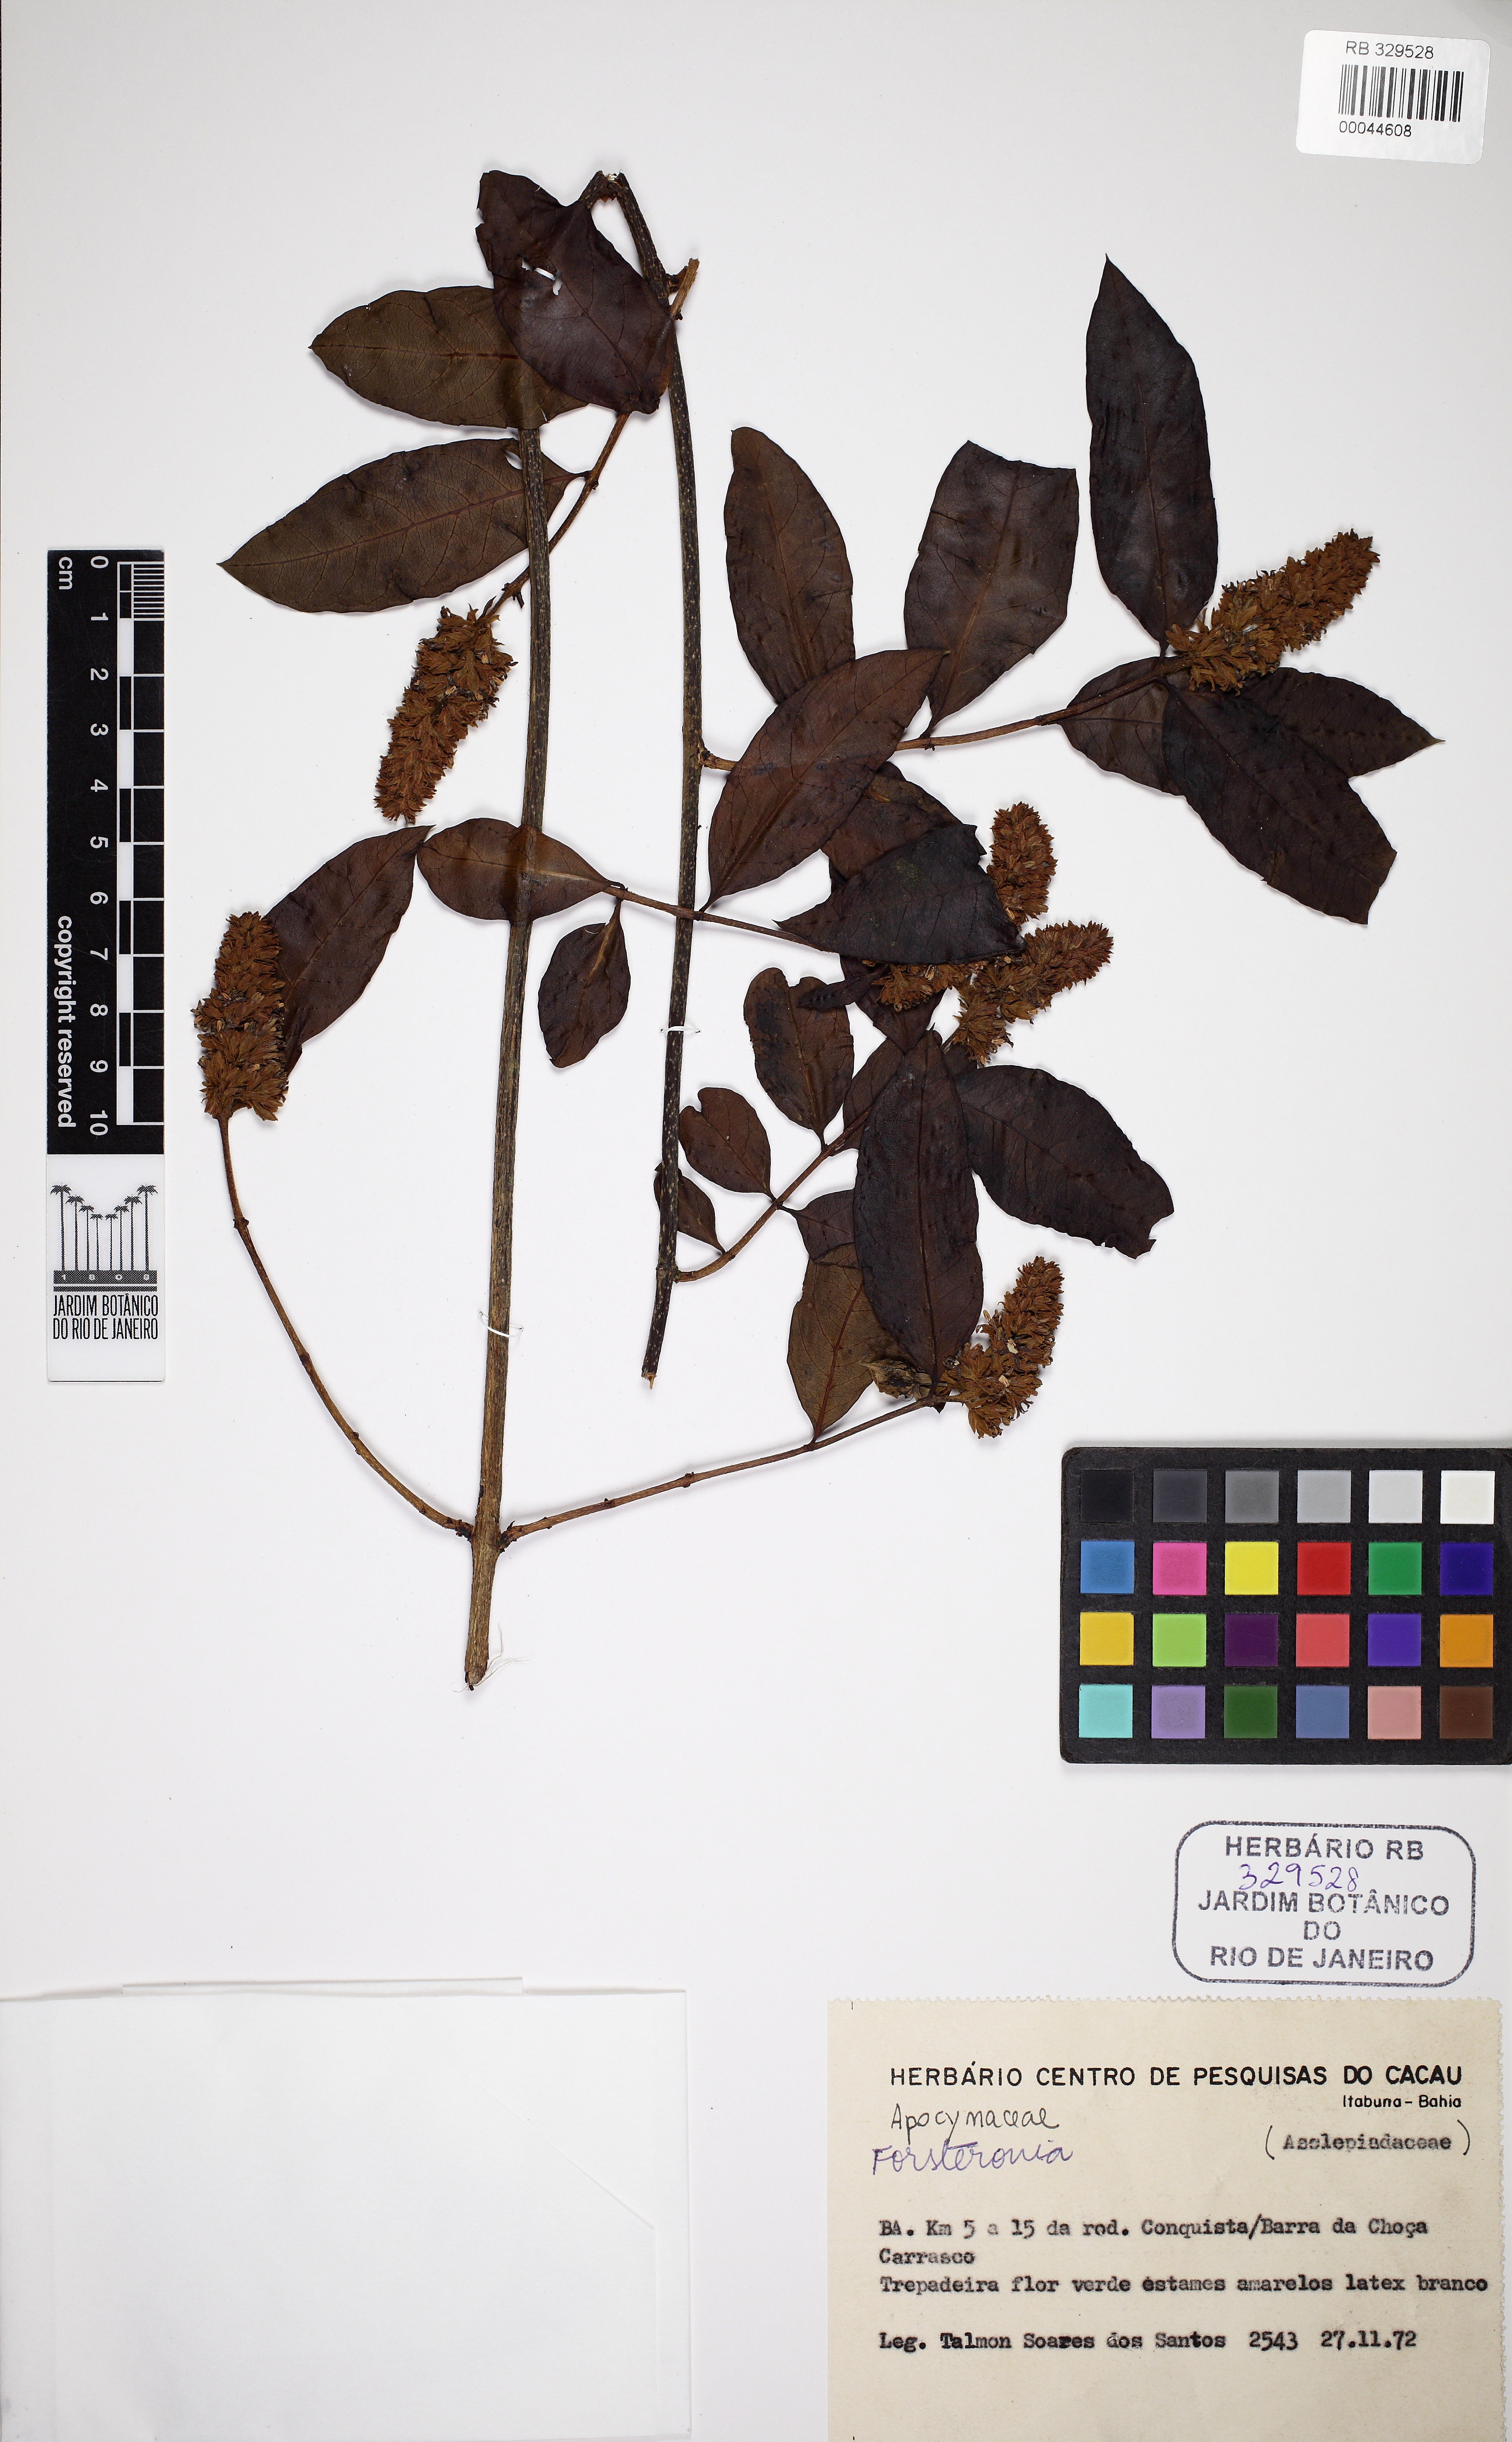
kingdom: Plantae
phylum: Tracheophyta
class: Magnoliopsida
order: Gentianales
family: Apocynaceae
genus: Forsteronia
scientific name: Forsteronia
